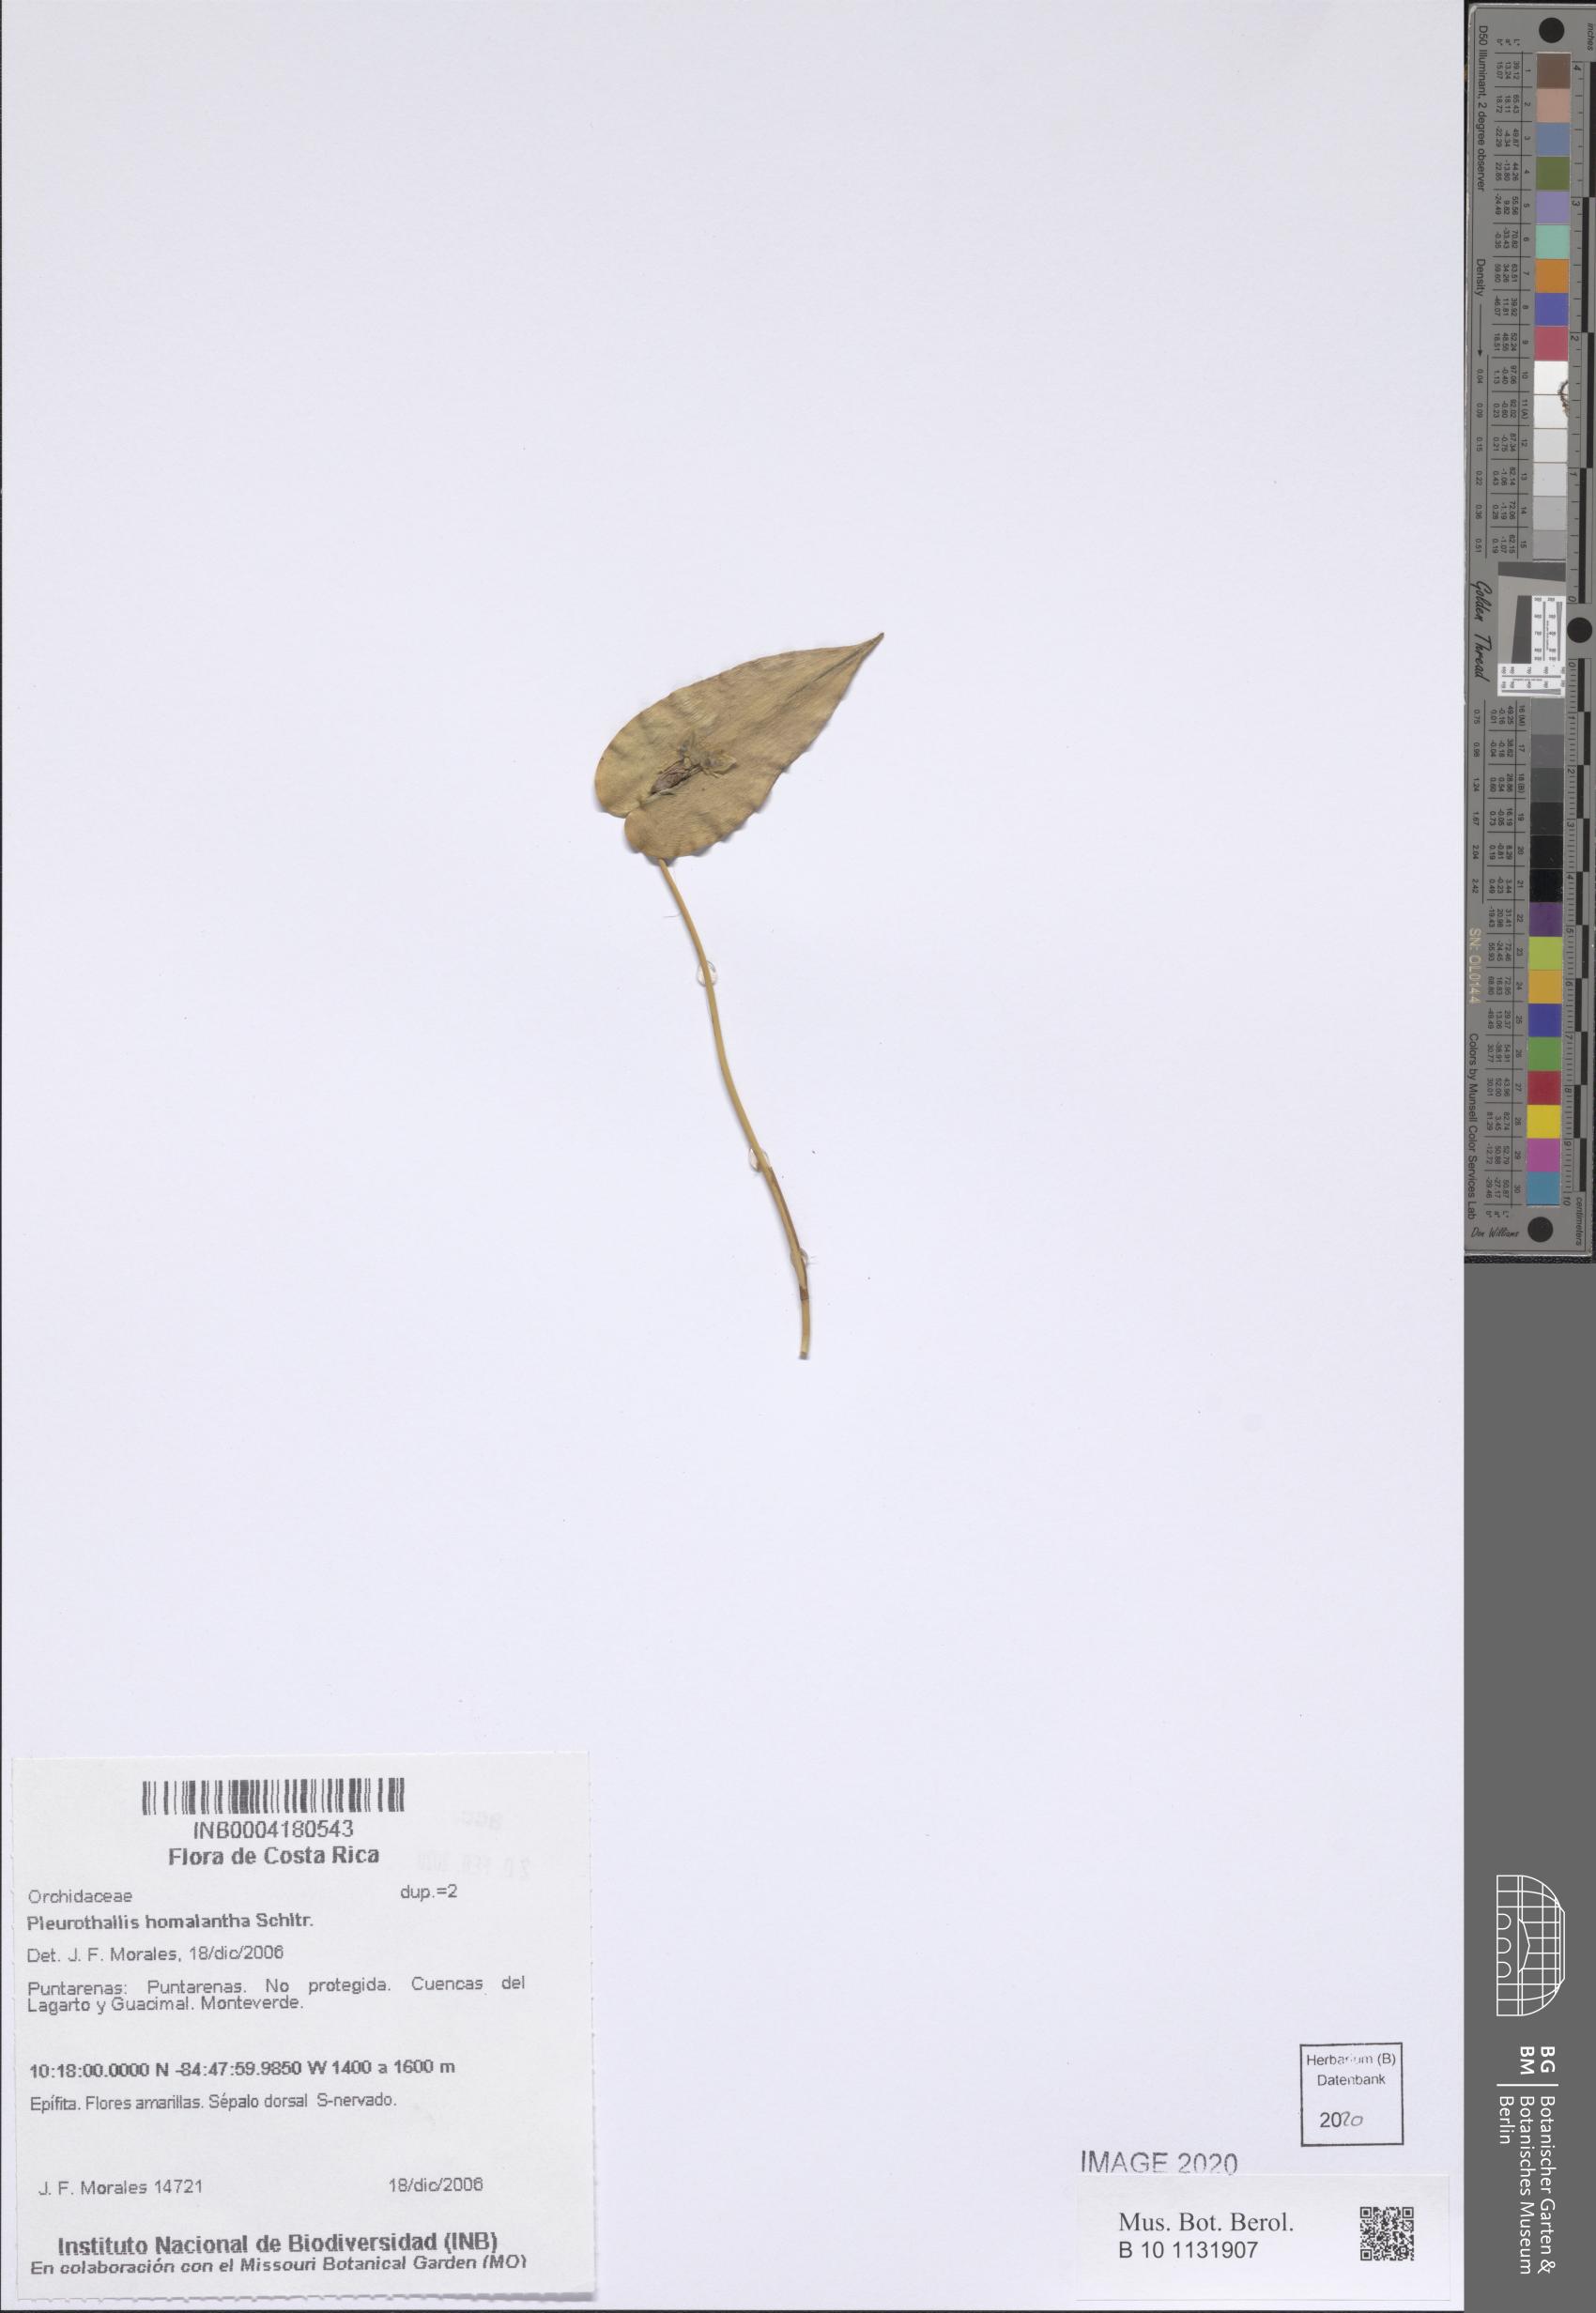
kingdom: Plantae
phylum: Tracheophyta
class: Liliopsida
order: Asparagales
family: Orchidaceae
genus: Pleurothallis
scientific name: Pleurothallis homalantha
